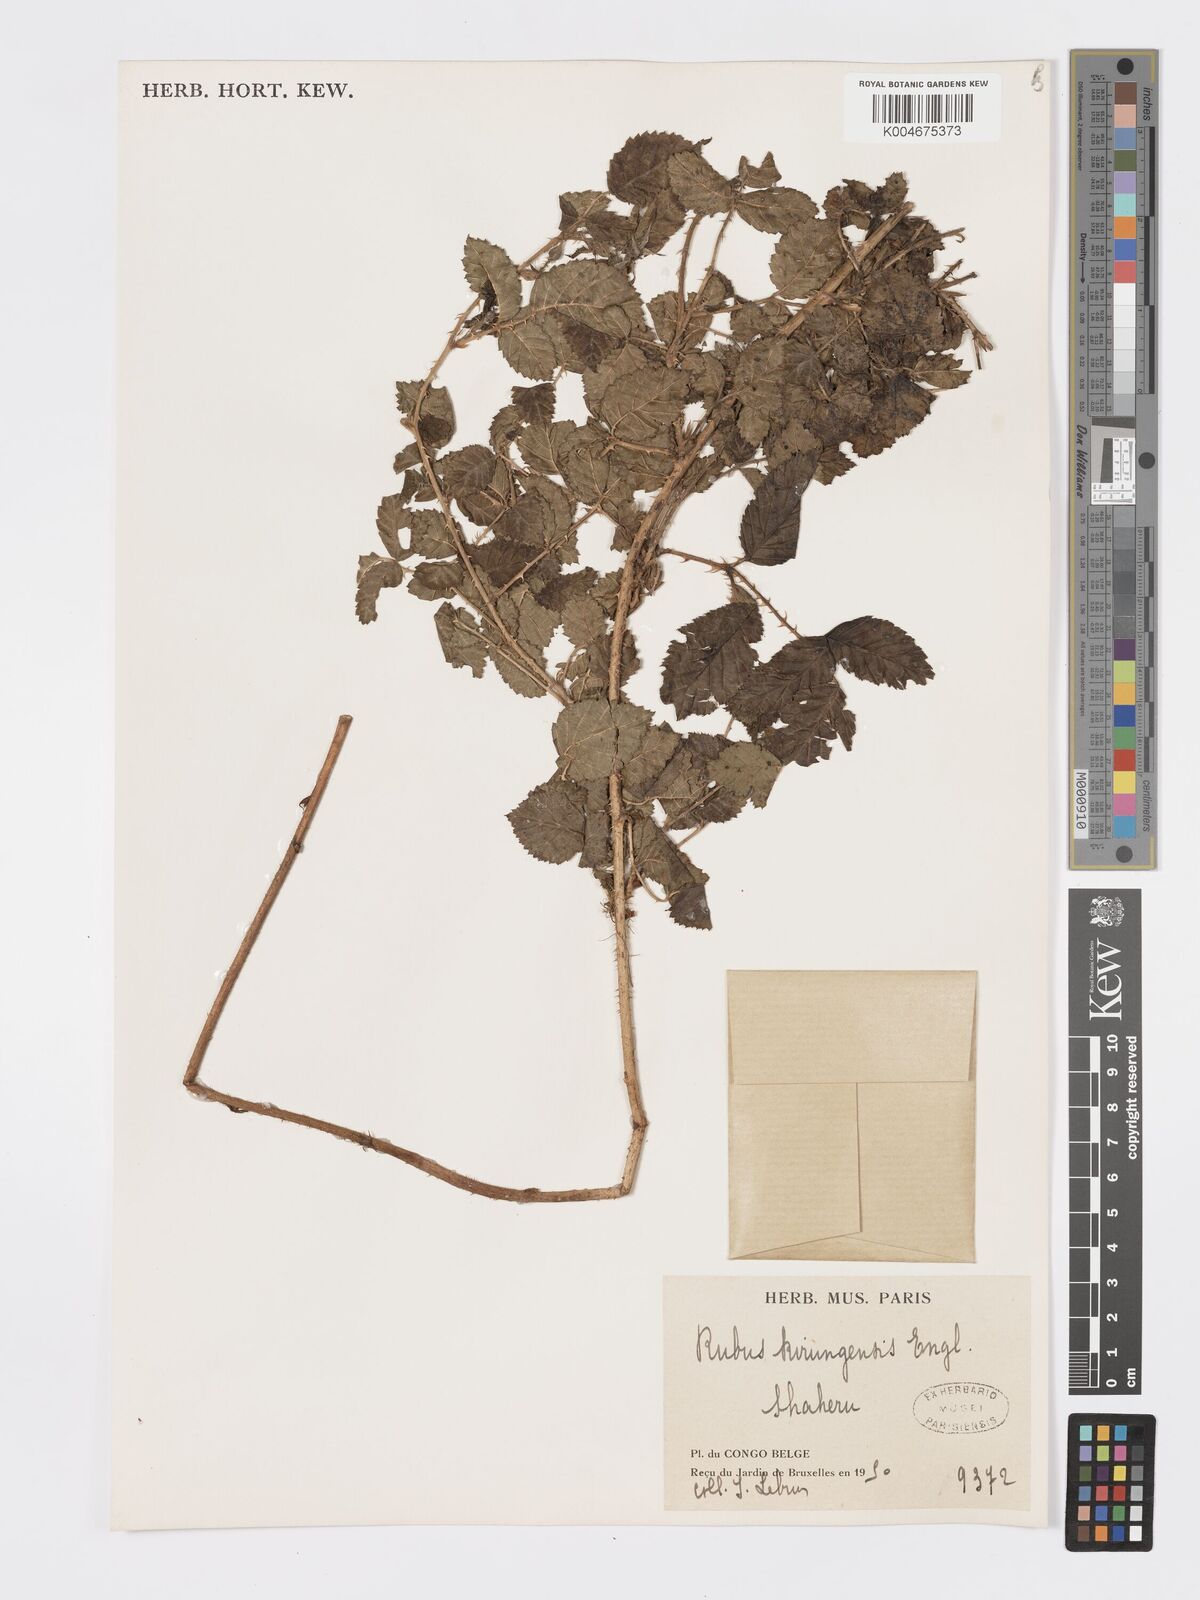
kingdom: Plantae
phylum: Tracheophyta
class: Magnoliopsida
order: Rosales
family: Rosaceae
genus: Rubus
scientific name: Rubus kirungensis
